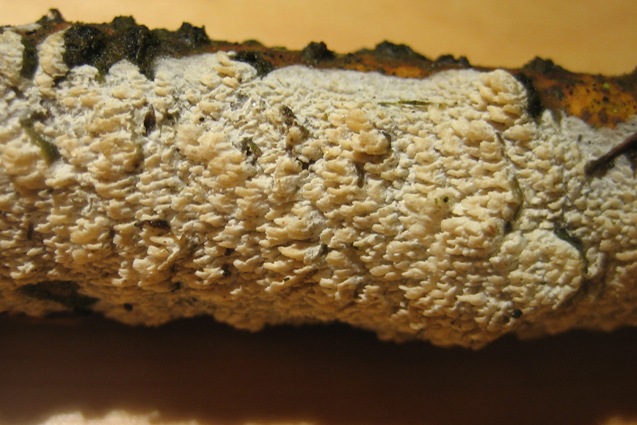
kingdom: Fungi
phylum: Basidiomycota
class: Agaricomycetes
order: Hymenochaetales
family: Schizoporaceae
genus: Schizopora
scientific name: Schizopora paradoxa
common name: hvid tandsvamp
